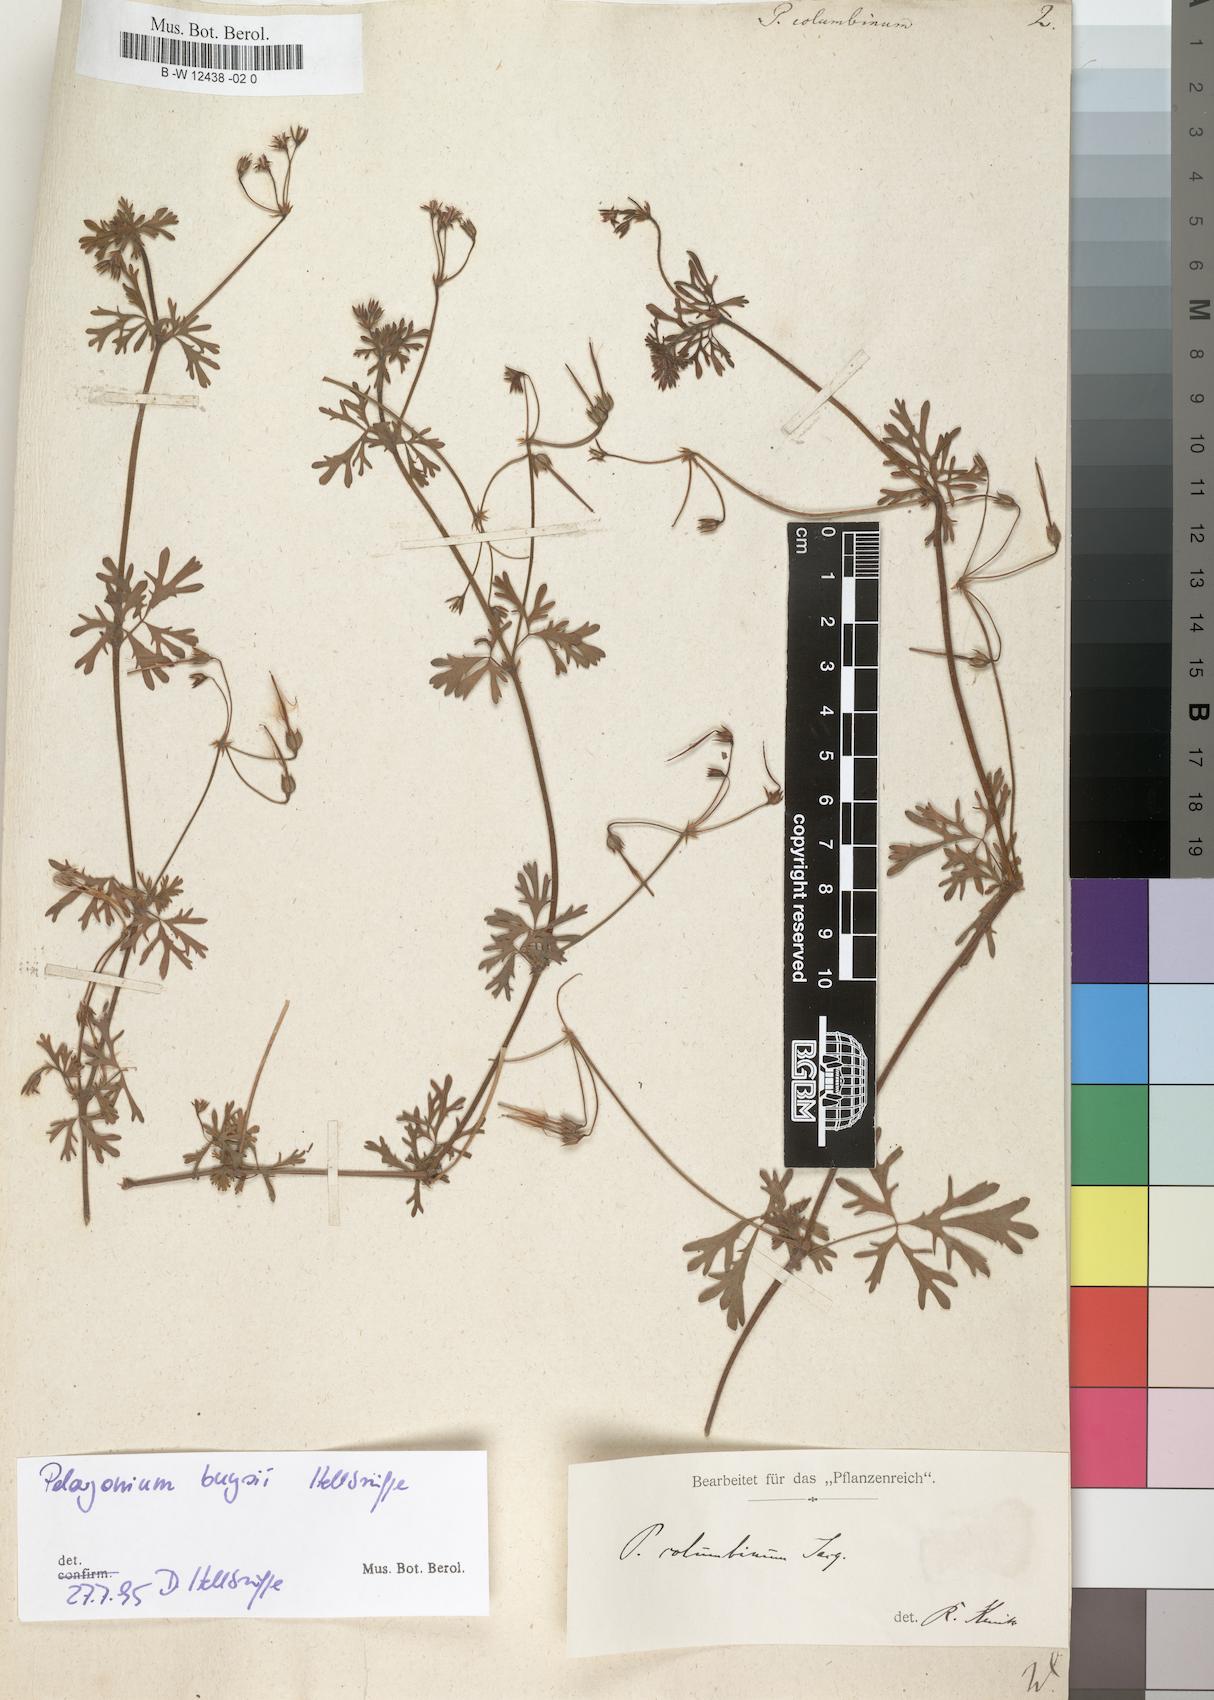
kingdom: Plantae
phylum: Tracheophyta
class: Magnoliopsida
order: Geraniales
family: Geraniaceae
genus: Pelargonium
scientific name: Pelargonium columbinum
